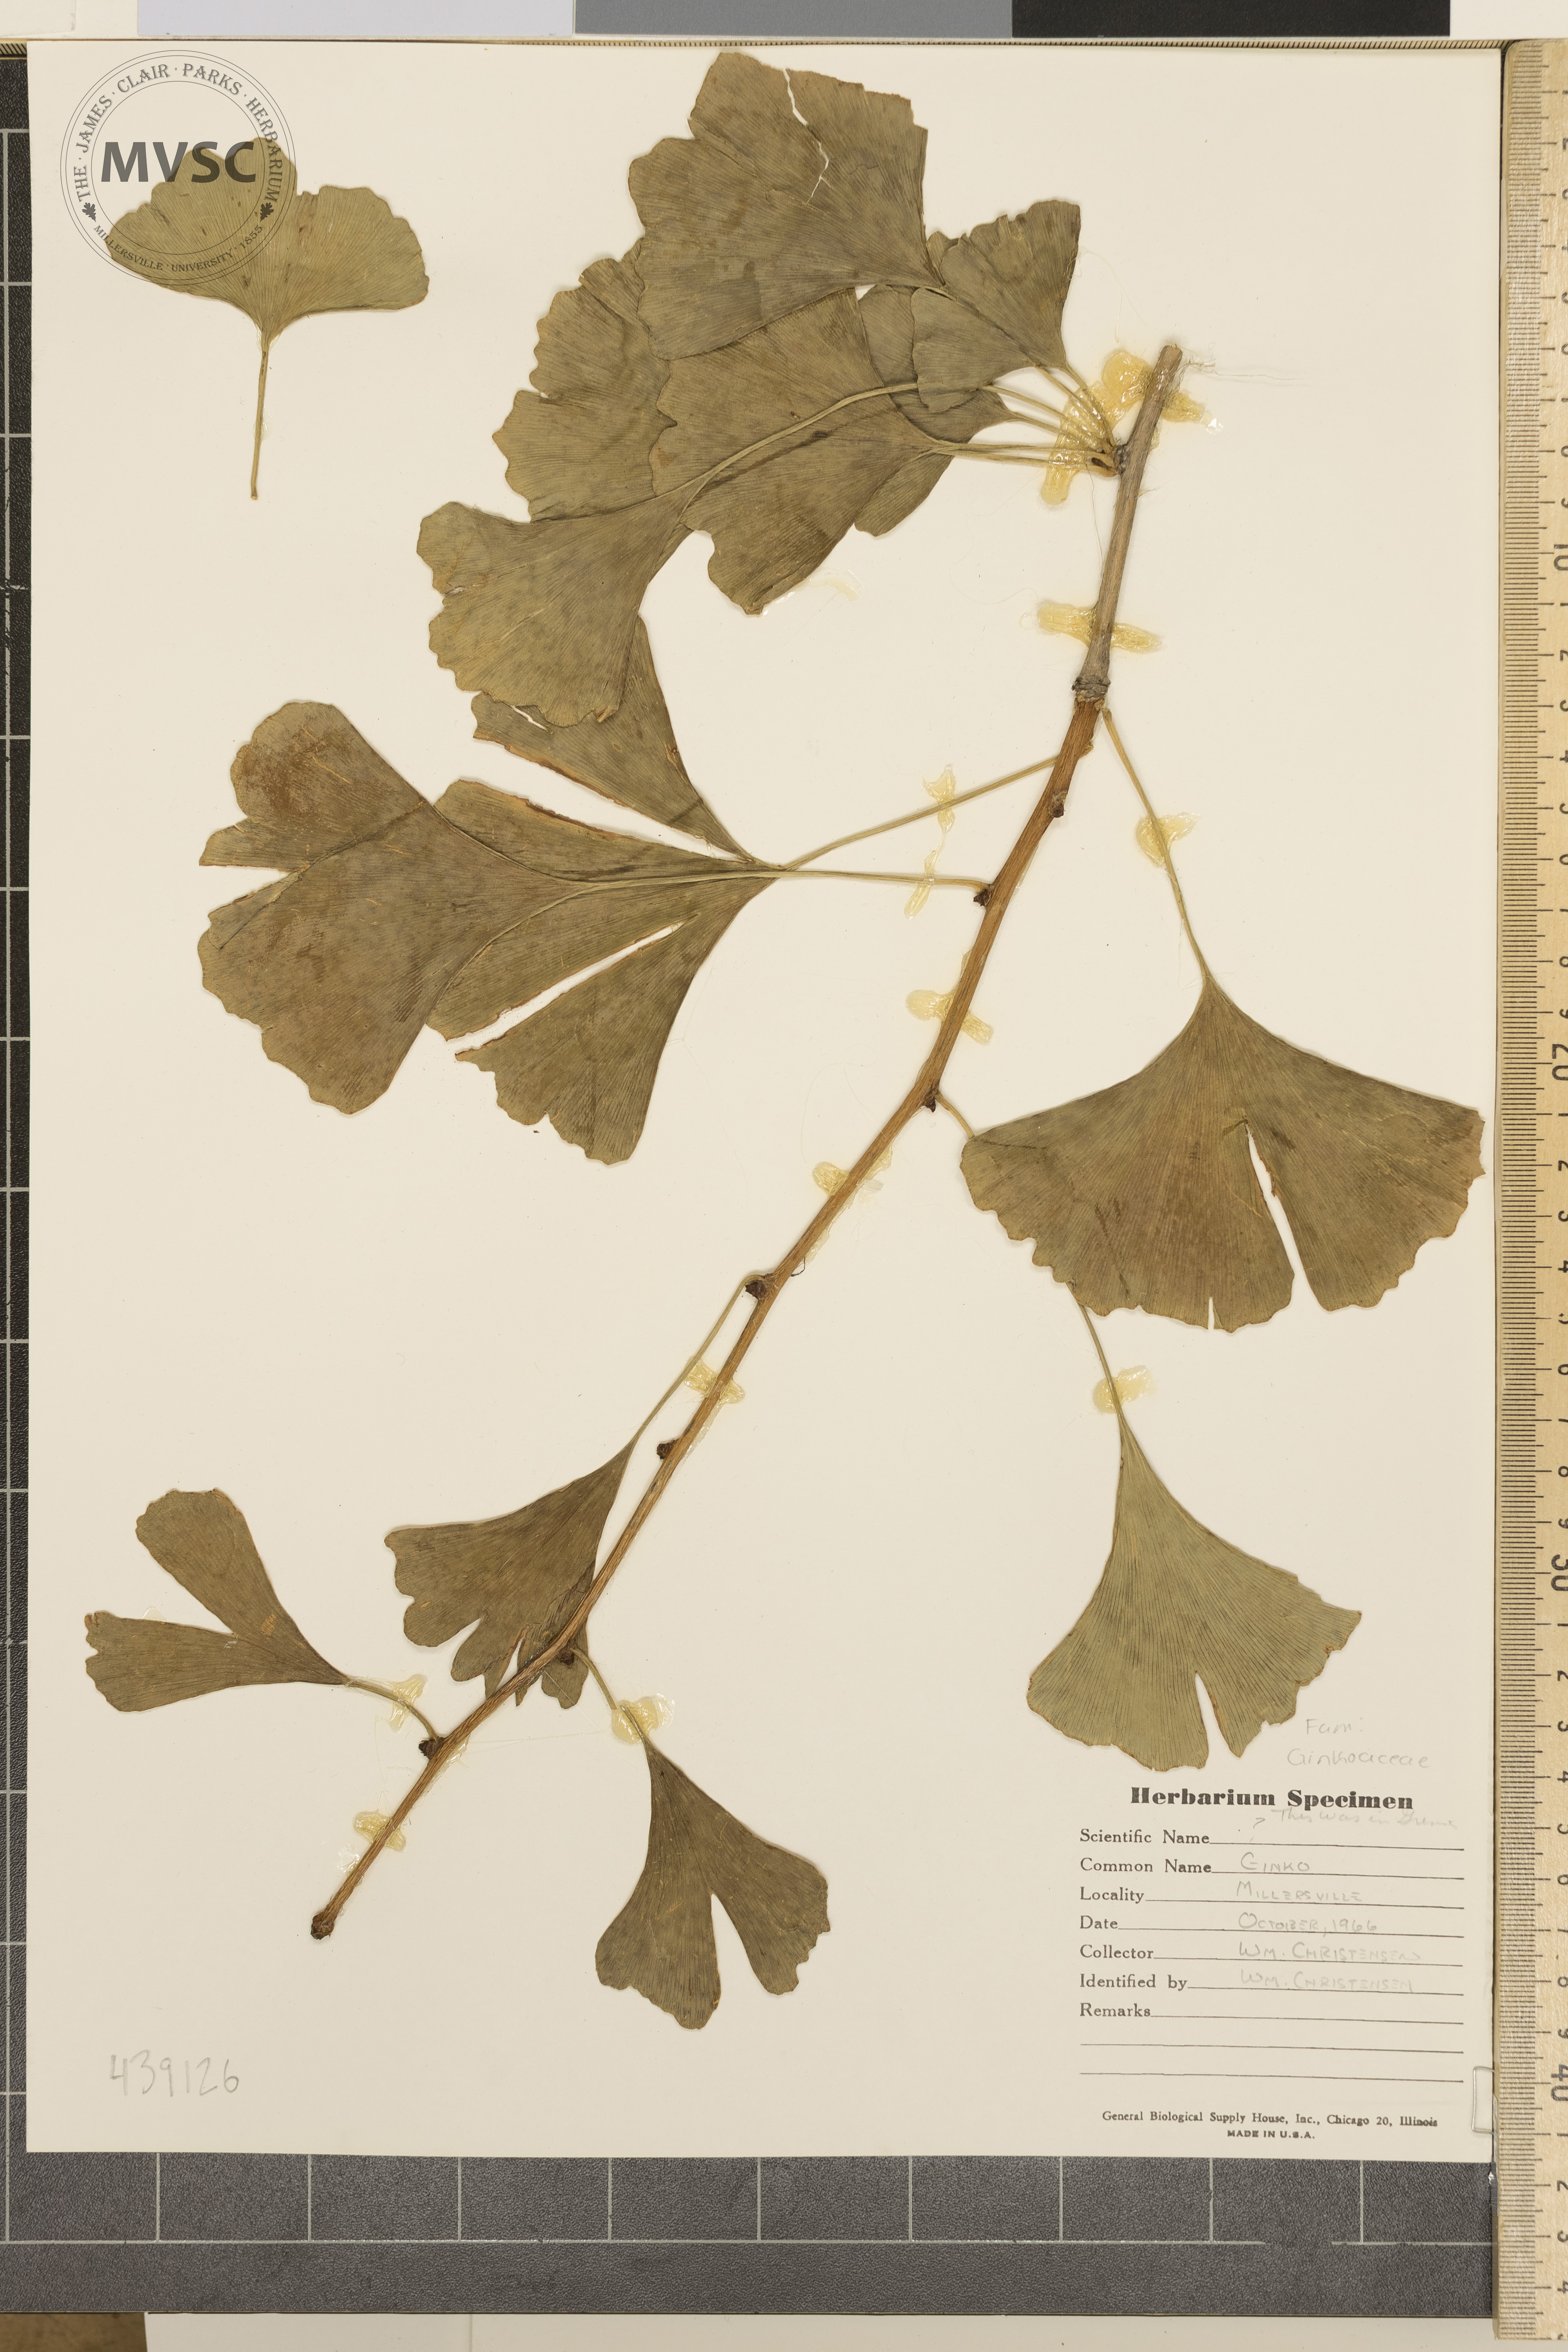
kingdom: Plantae
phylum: Tracheophyta
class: Ginkgoopsida
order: Ginkgoales
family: Ginkgoaceae
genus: Ginkgo
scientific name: Ginkgo biloba
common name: Ginkgo
